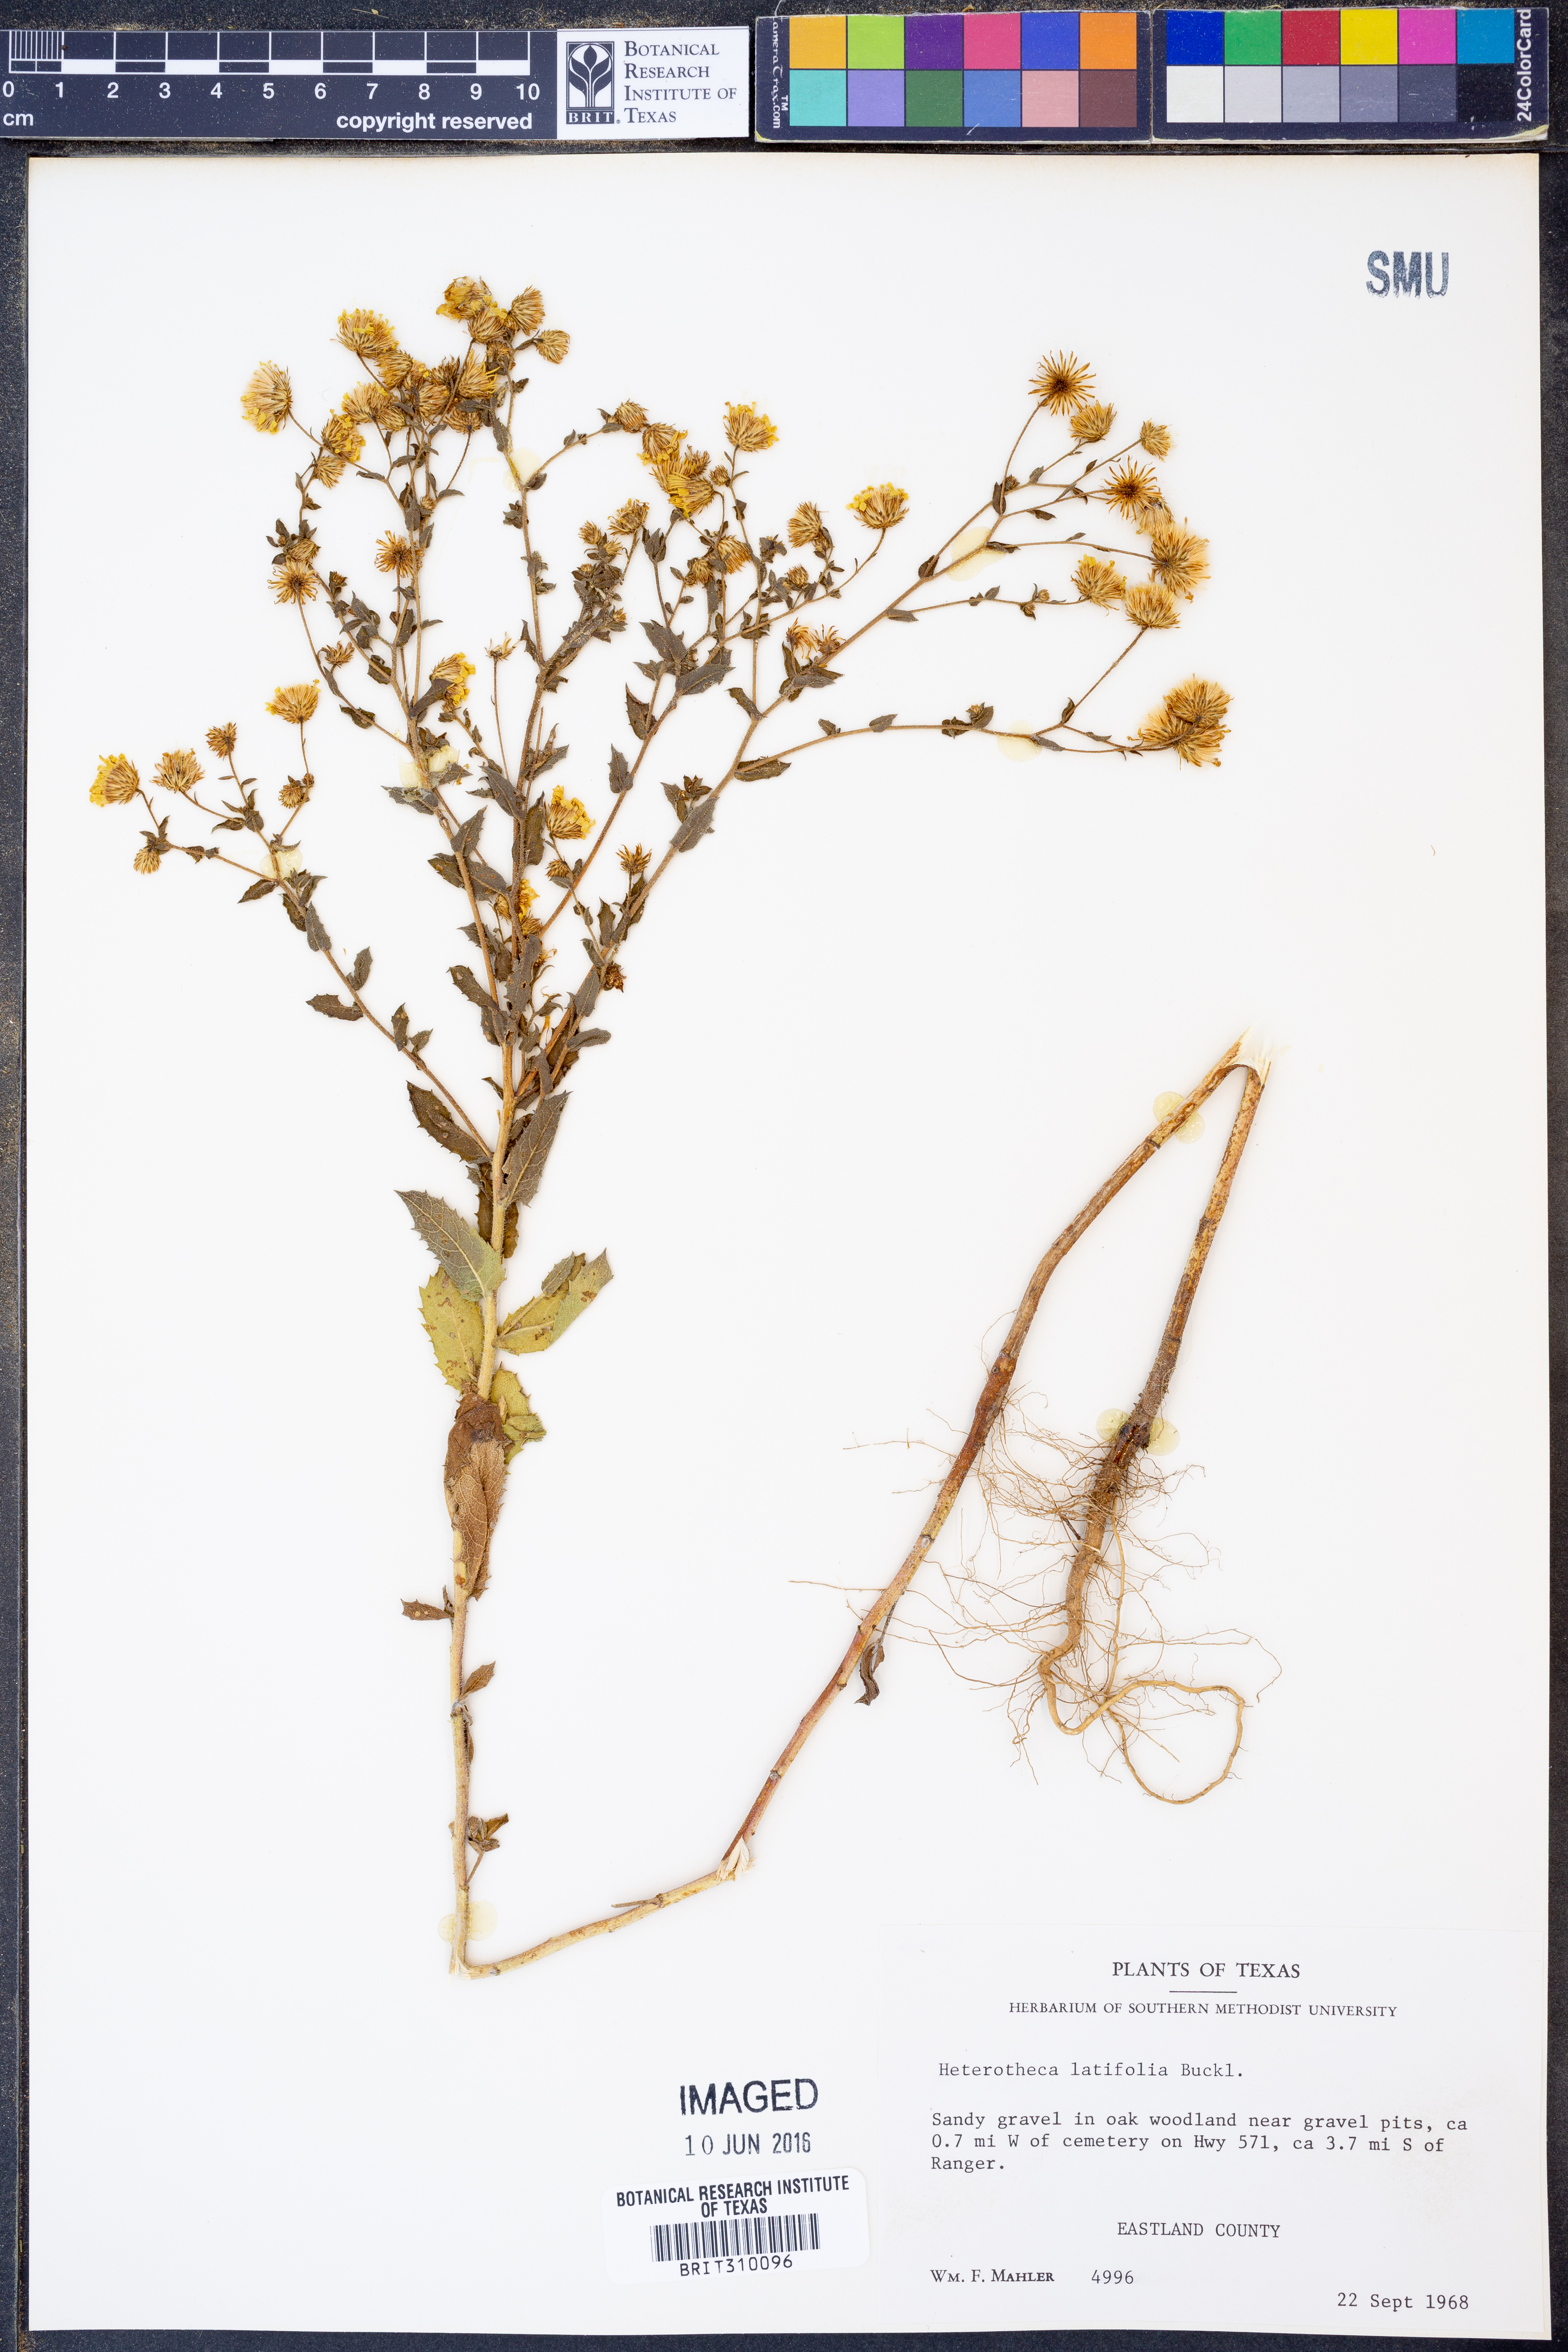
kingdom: Plantae
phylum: Tracheophyta
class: Magnoliopsida
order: Asterales
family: Asteraceae
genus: Heterotheca
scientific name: Heterotheca subaxillaris
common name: Camphorweed
